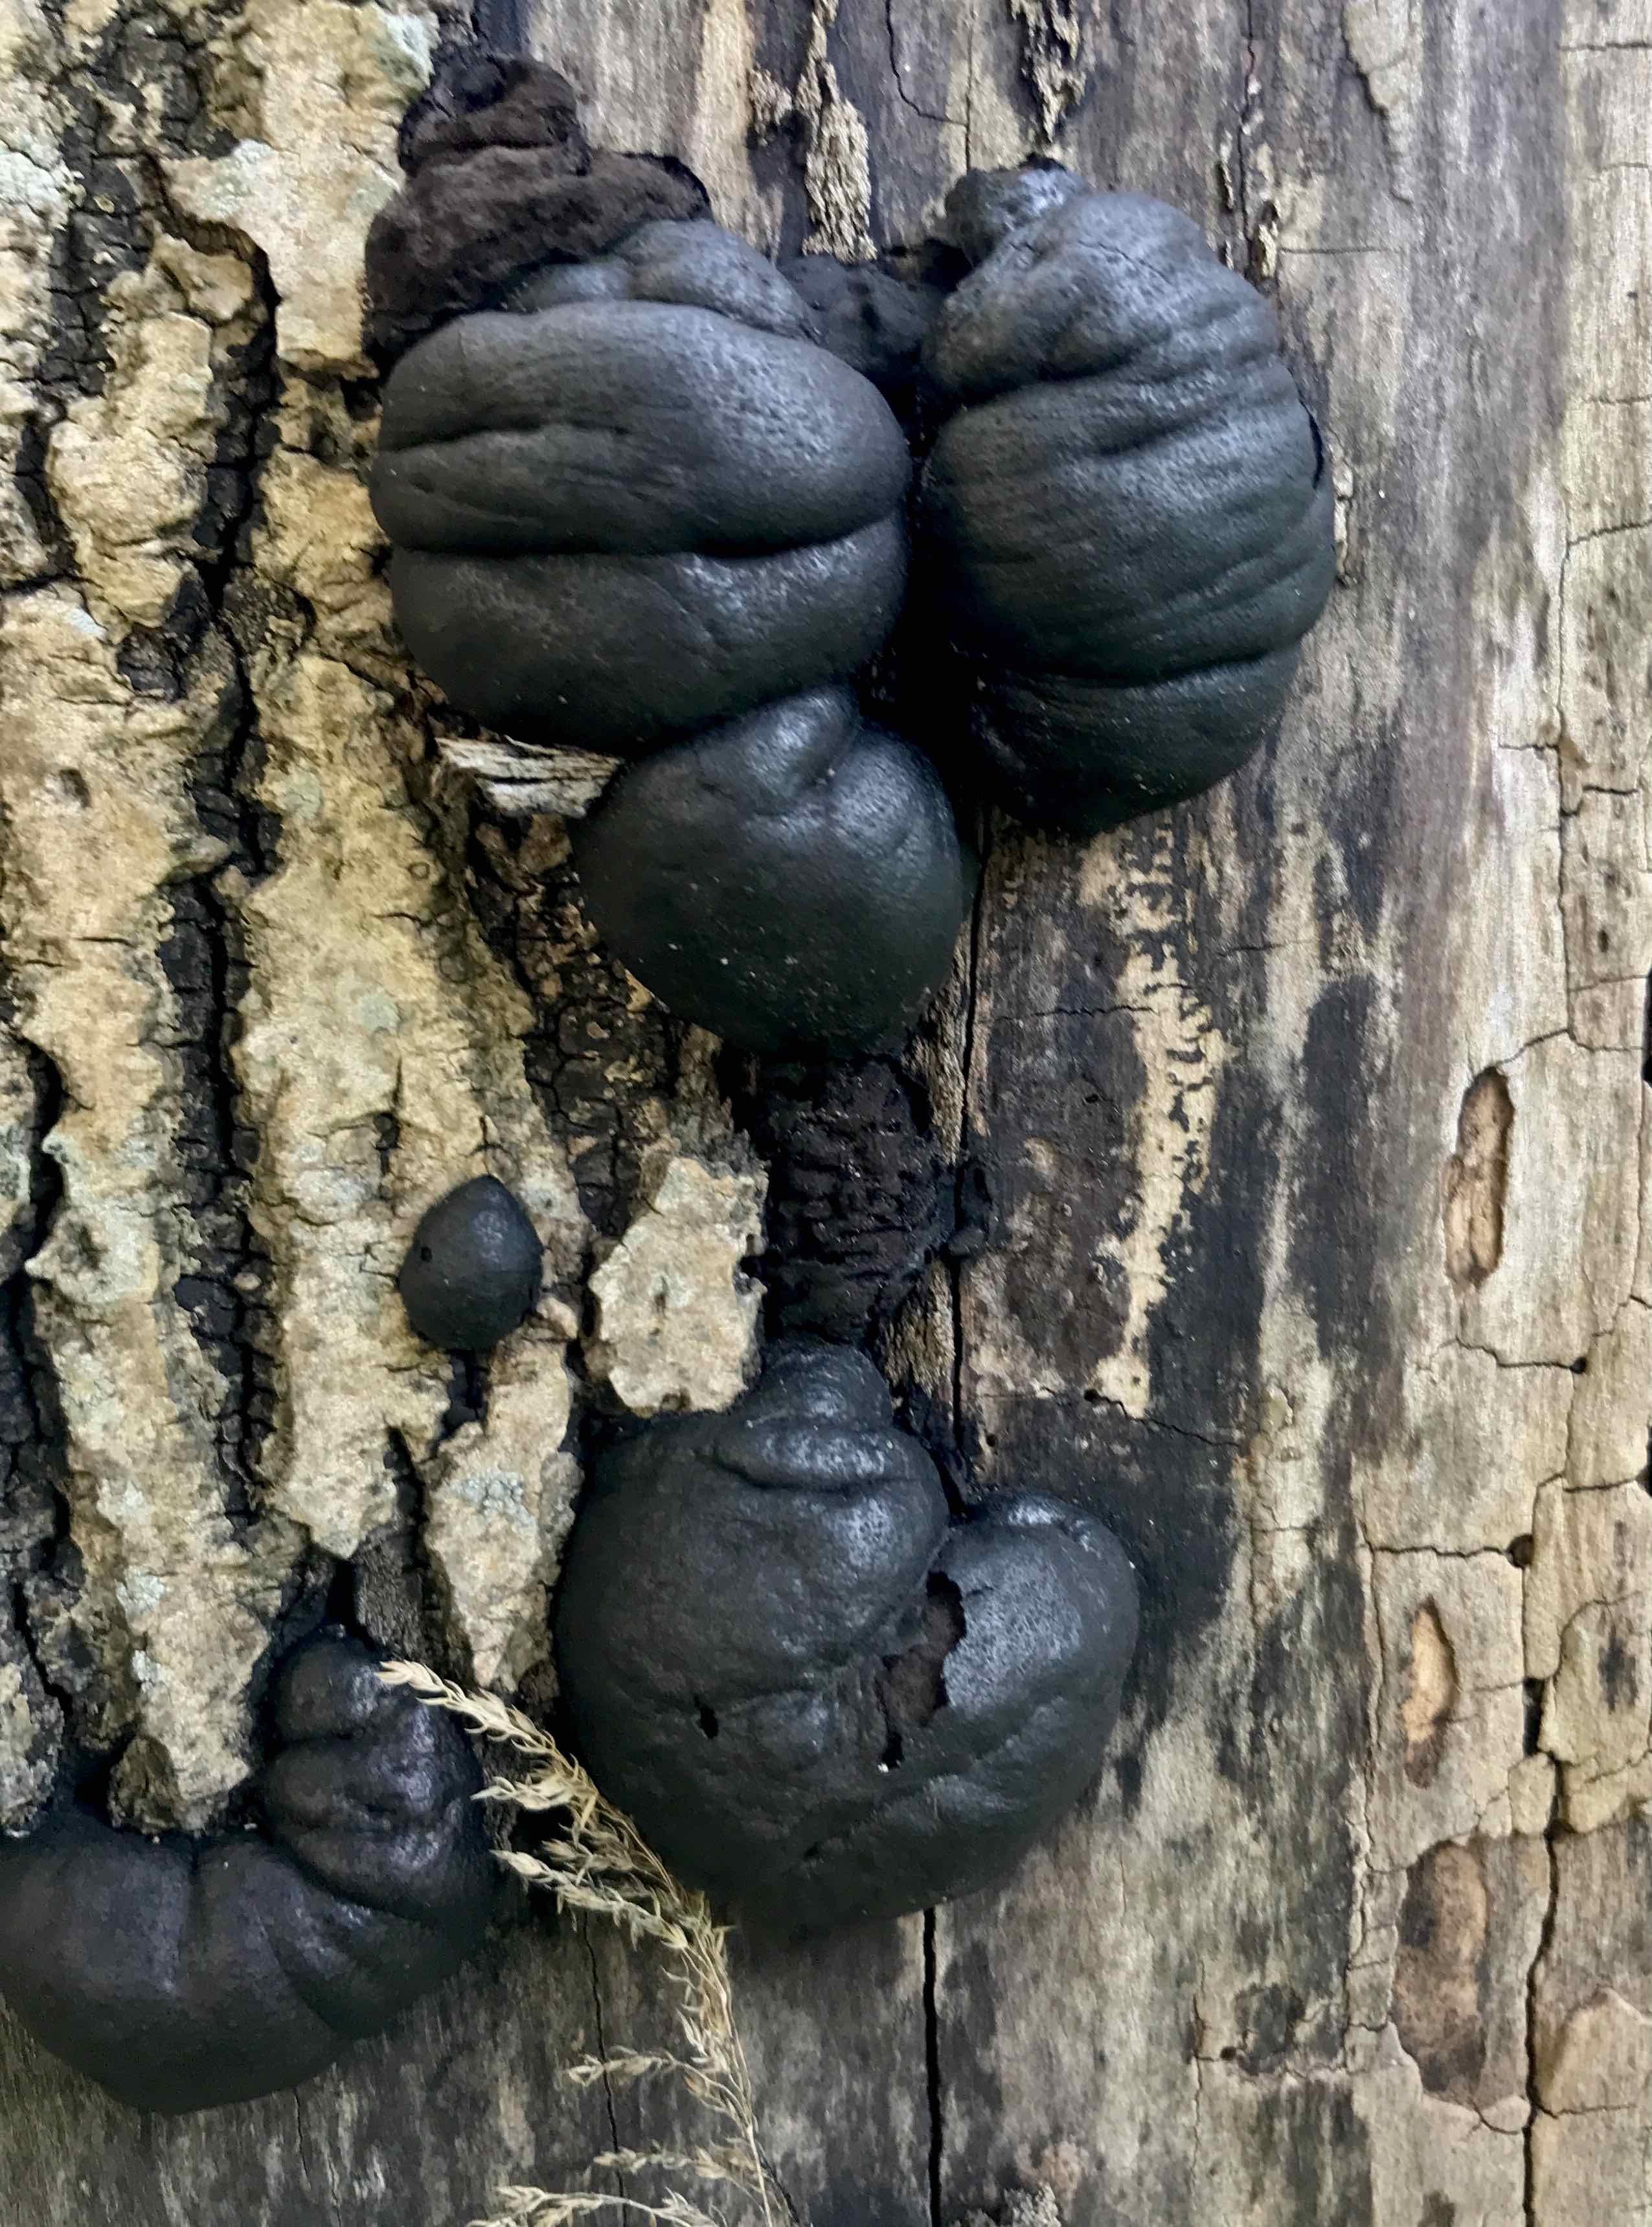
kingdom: Fungi
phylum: Ascomycota
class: Sordariomycetes
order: Xylariales
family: Hypoxylaceae
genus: Daldinia
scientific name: Daldinia concentrica
